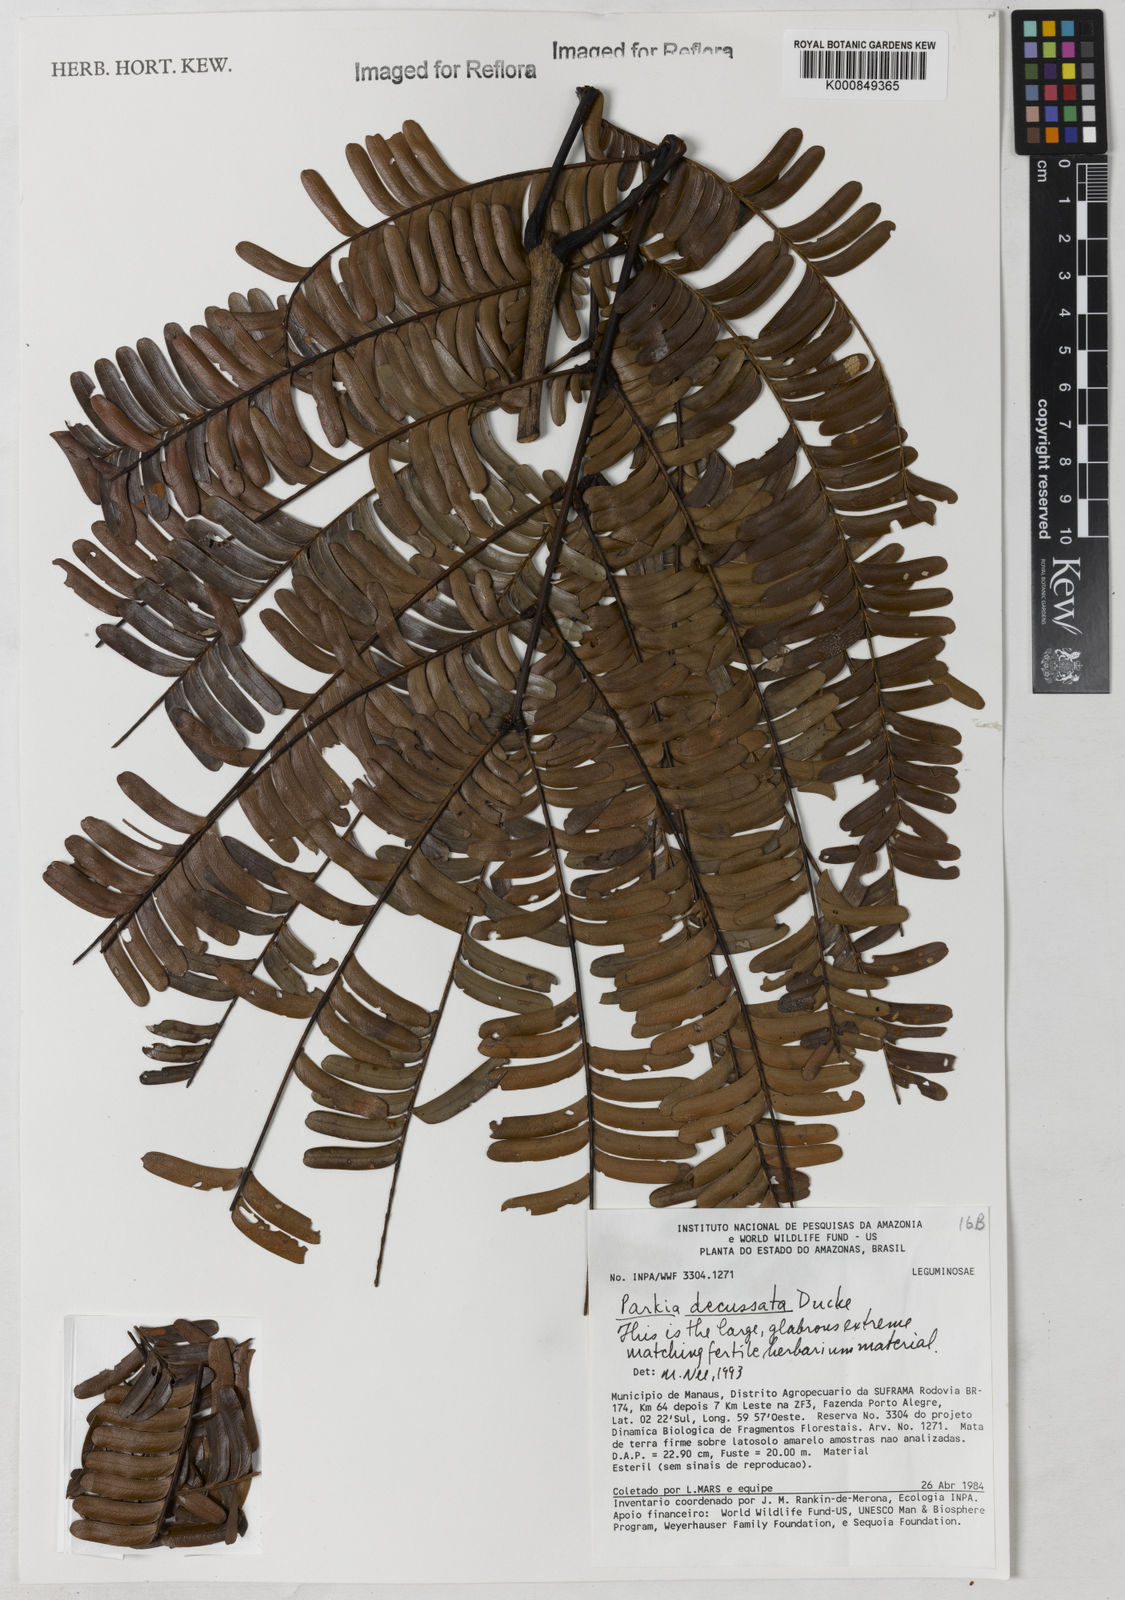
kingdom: Plantae
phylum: Tracheophyta
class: Magnoliopsida
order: Fabales
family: Fabaceae
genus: Parkia
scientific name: Parkia decussata
